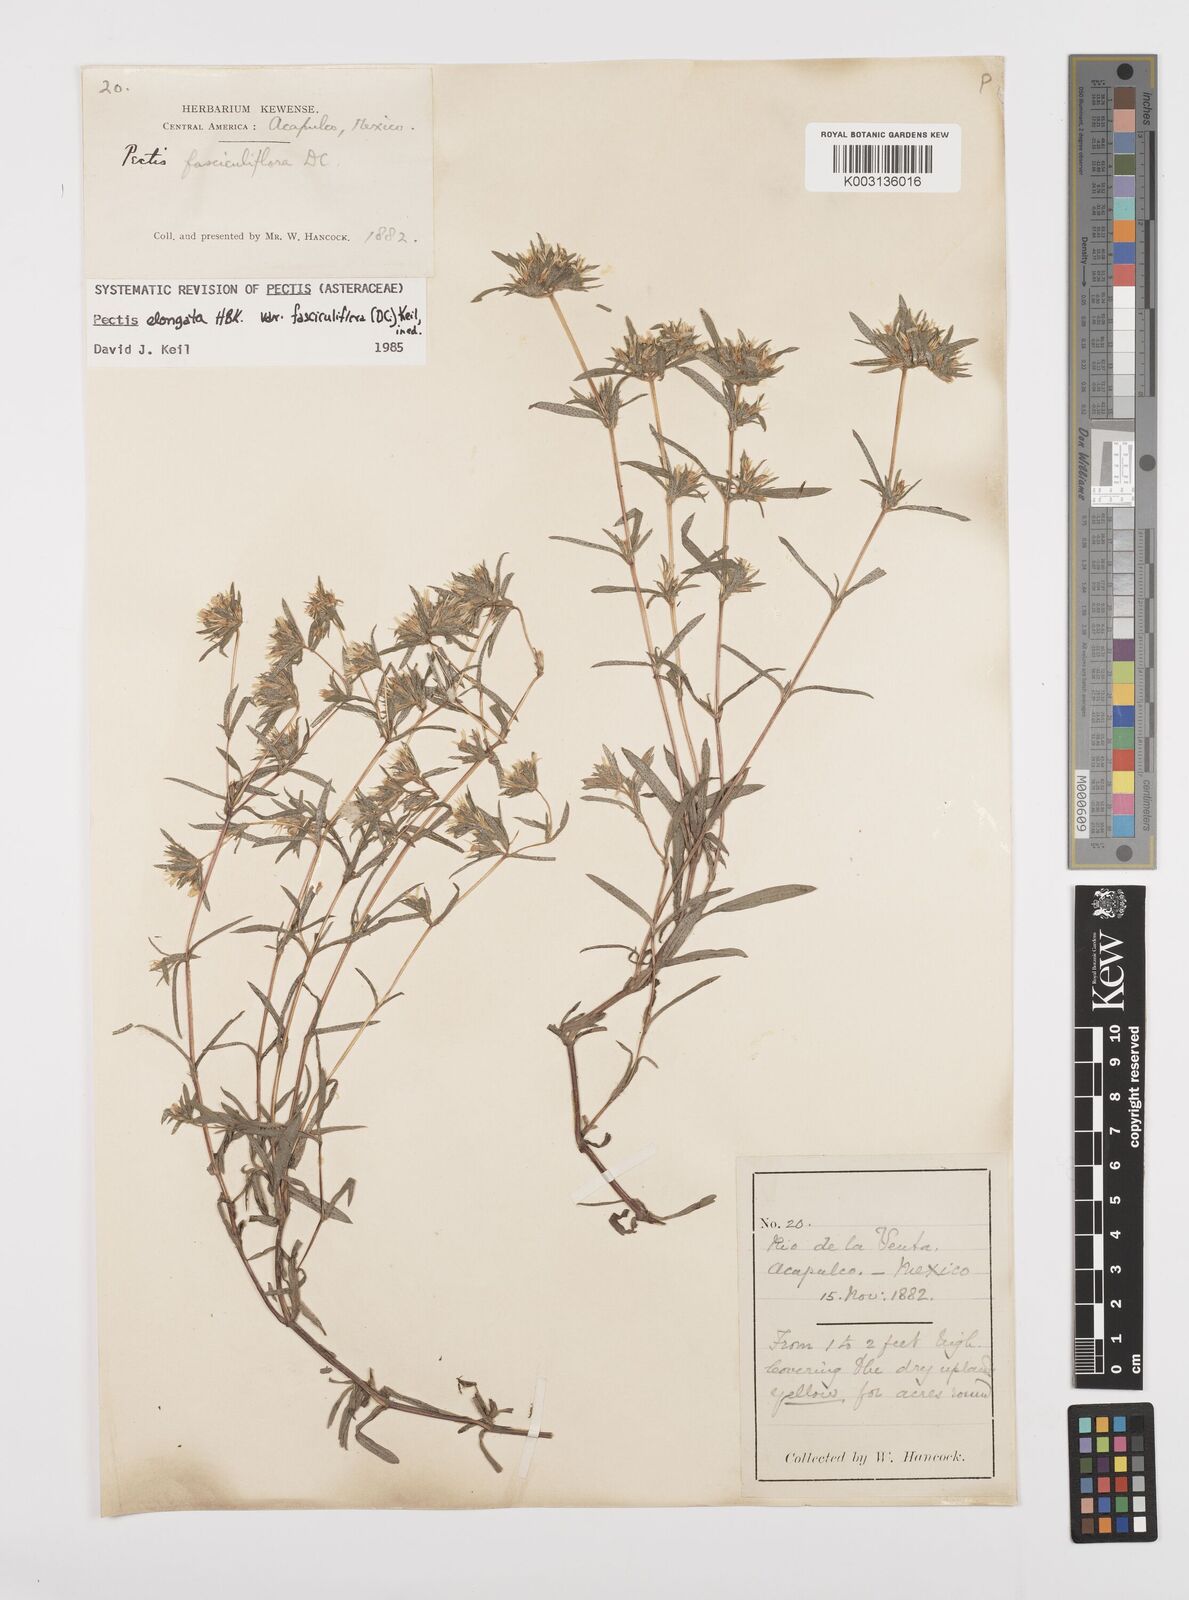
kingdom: Plantae
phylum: Tracheophyta
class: Magnoliopsida
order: Asterales
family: Asteraceae
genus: Pectis
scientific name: Pectis elongata
